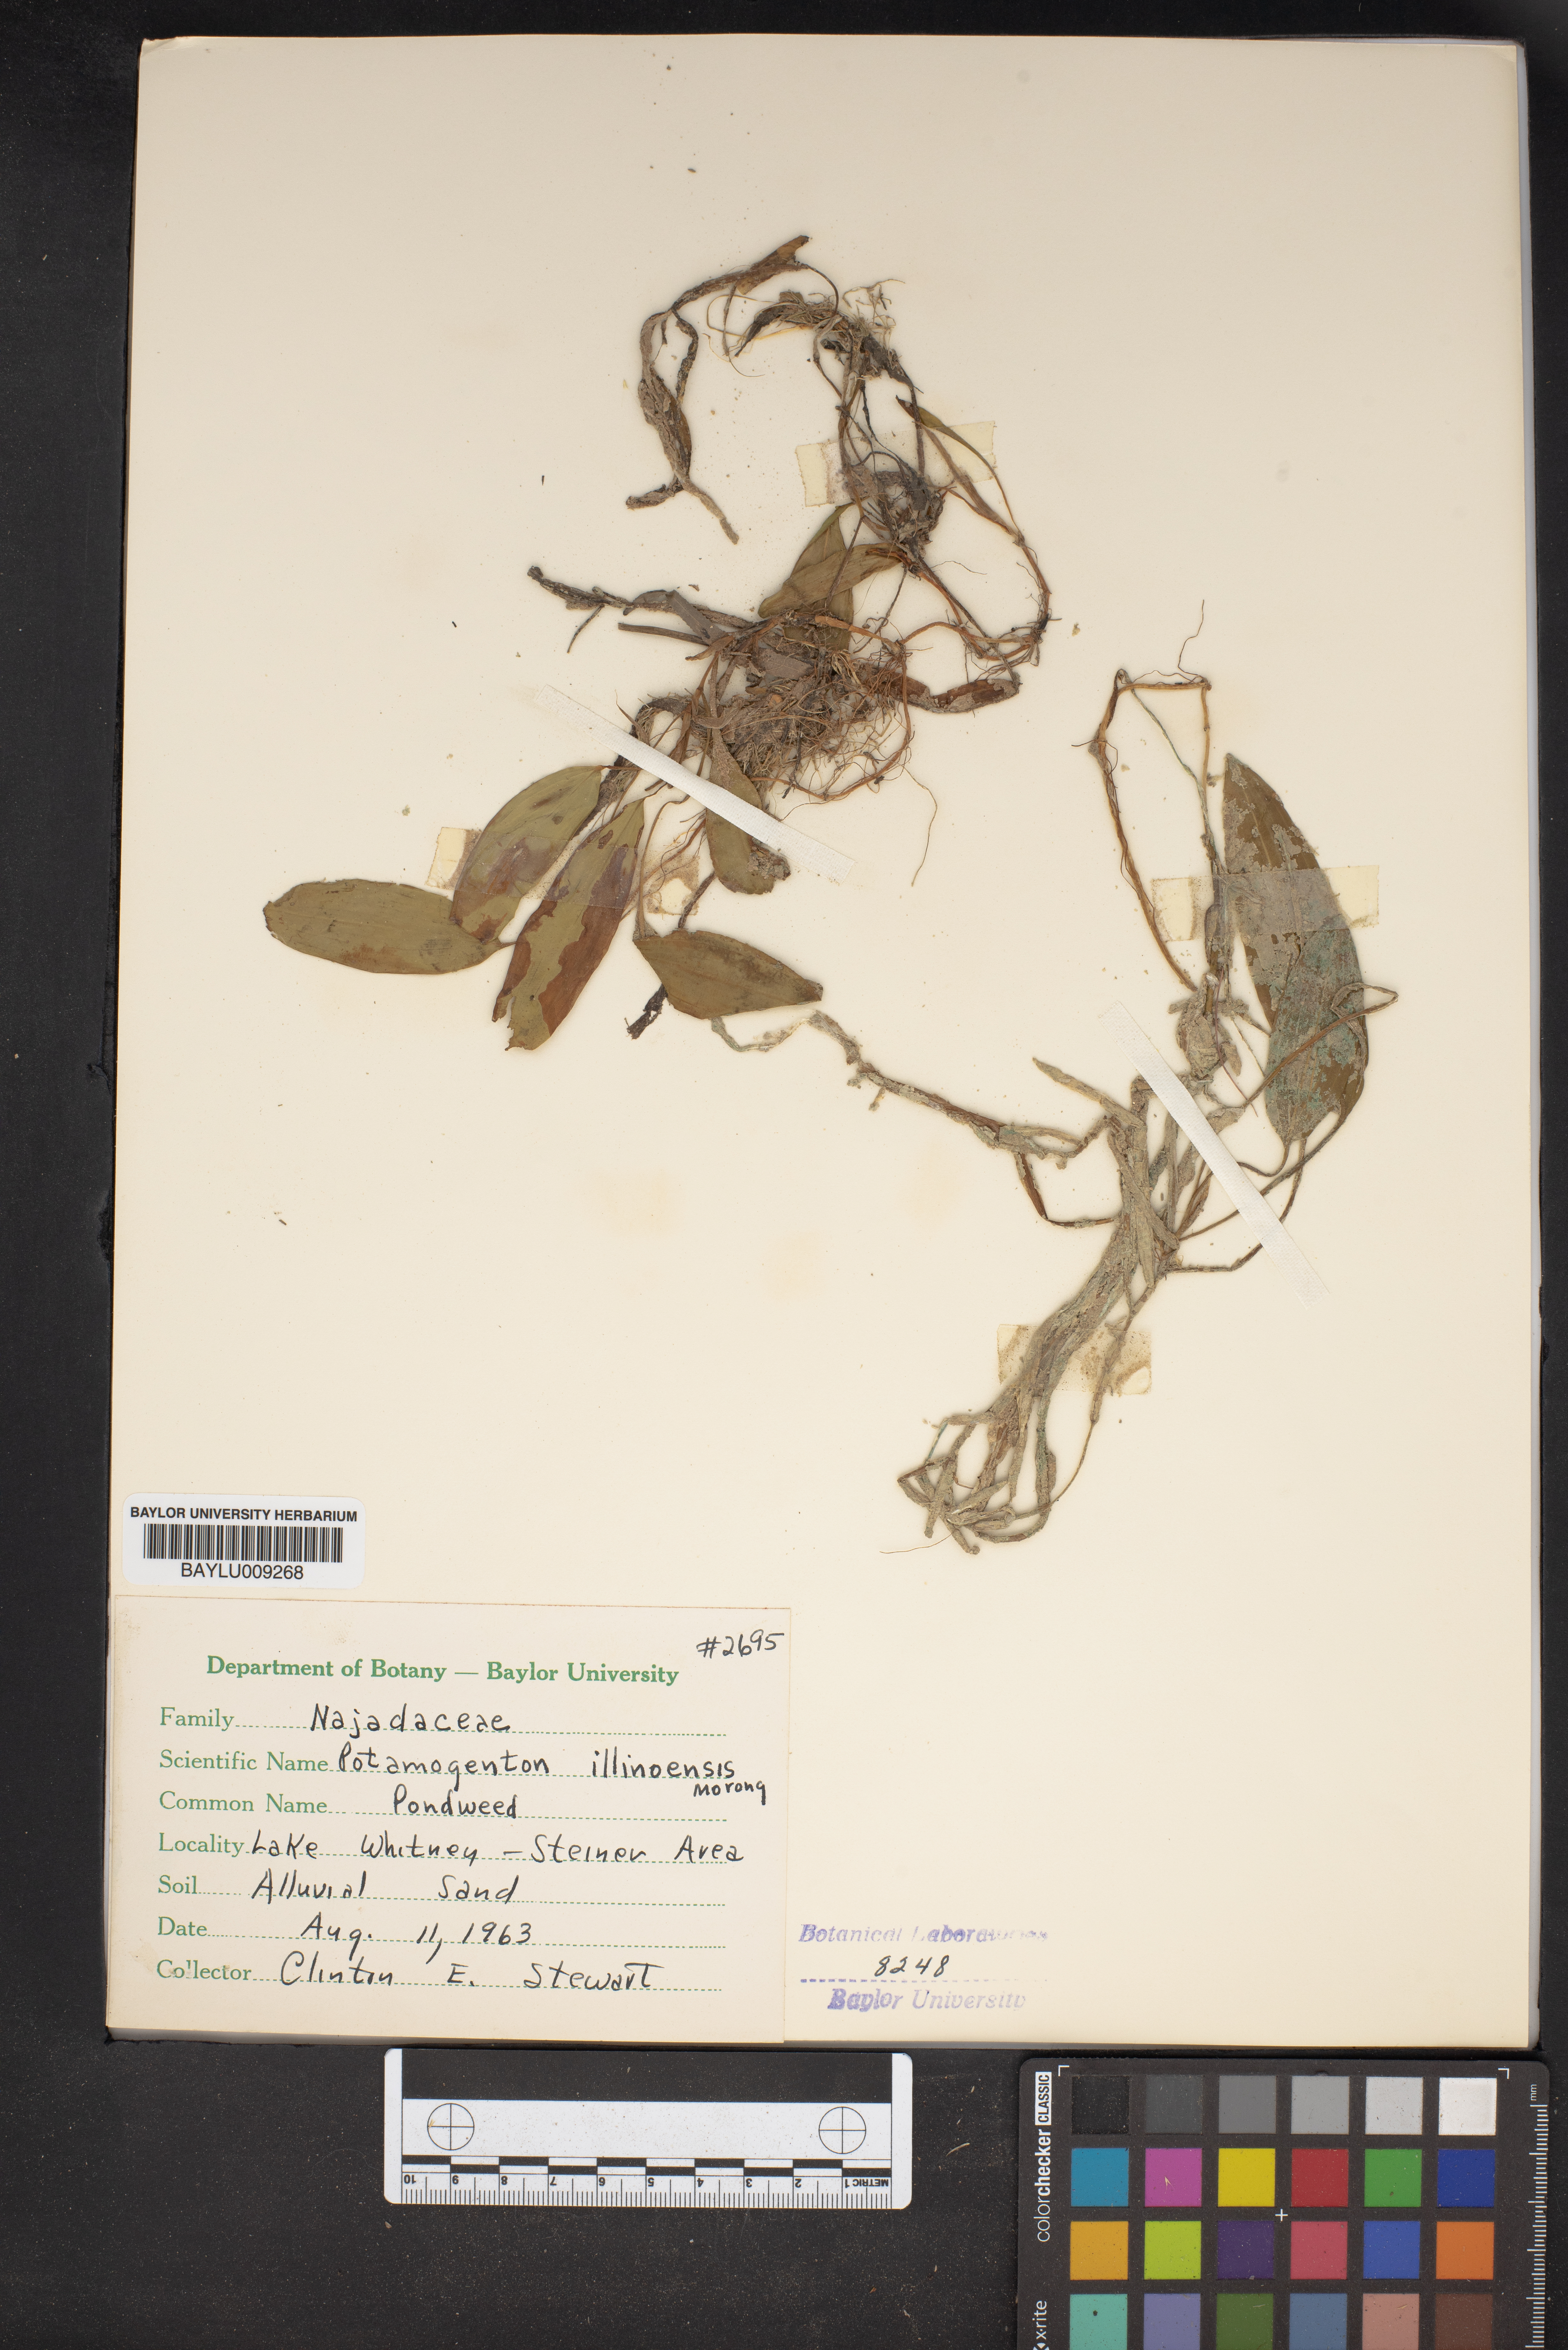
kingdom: Plantae
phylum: Tracheophyta
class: Liliopsida
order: Alismatales
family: Potamogetonaceae
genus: Potamogeton
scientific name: Potamogeton illinoensis
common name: Illinois pondweed
